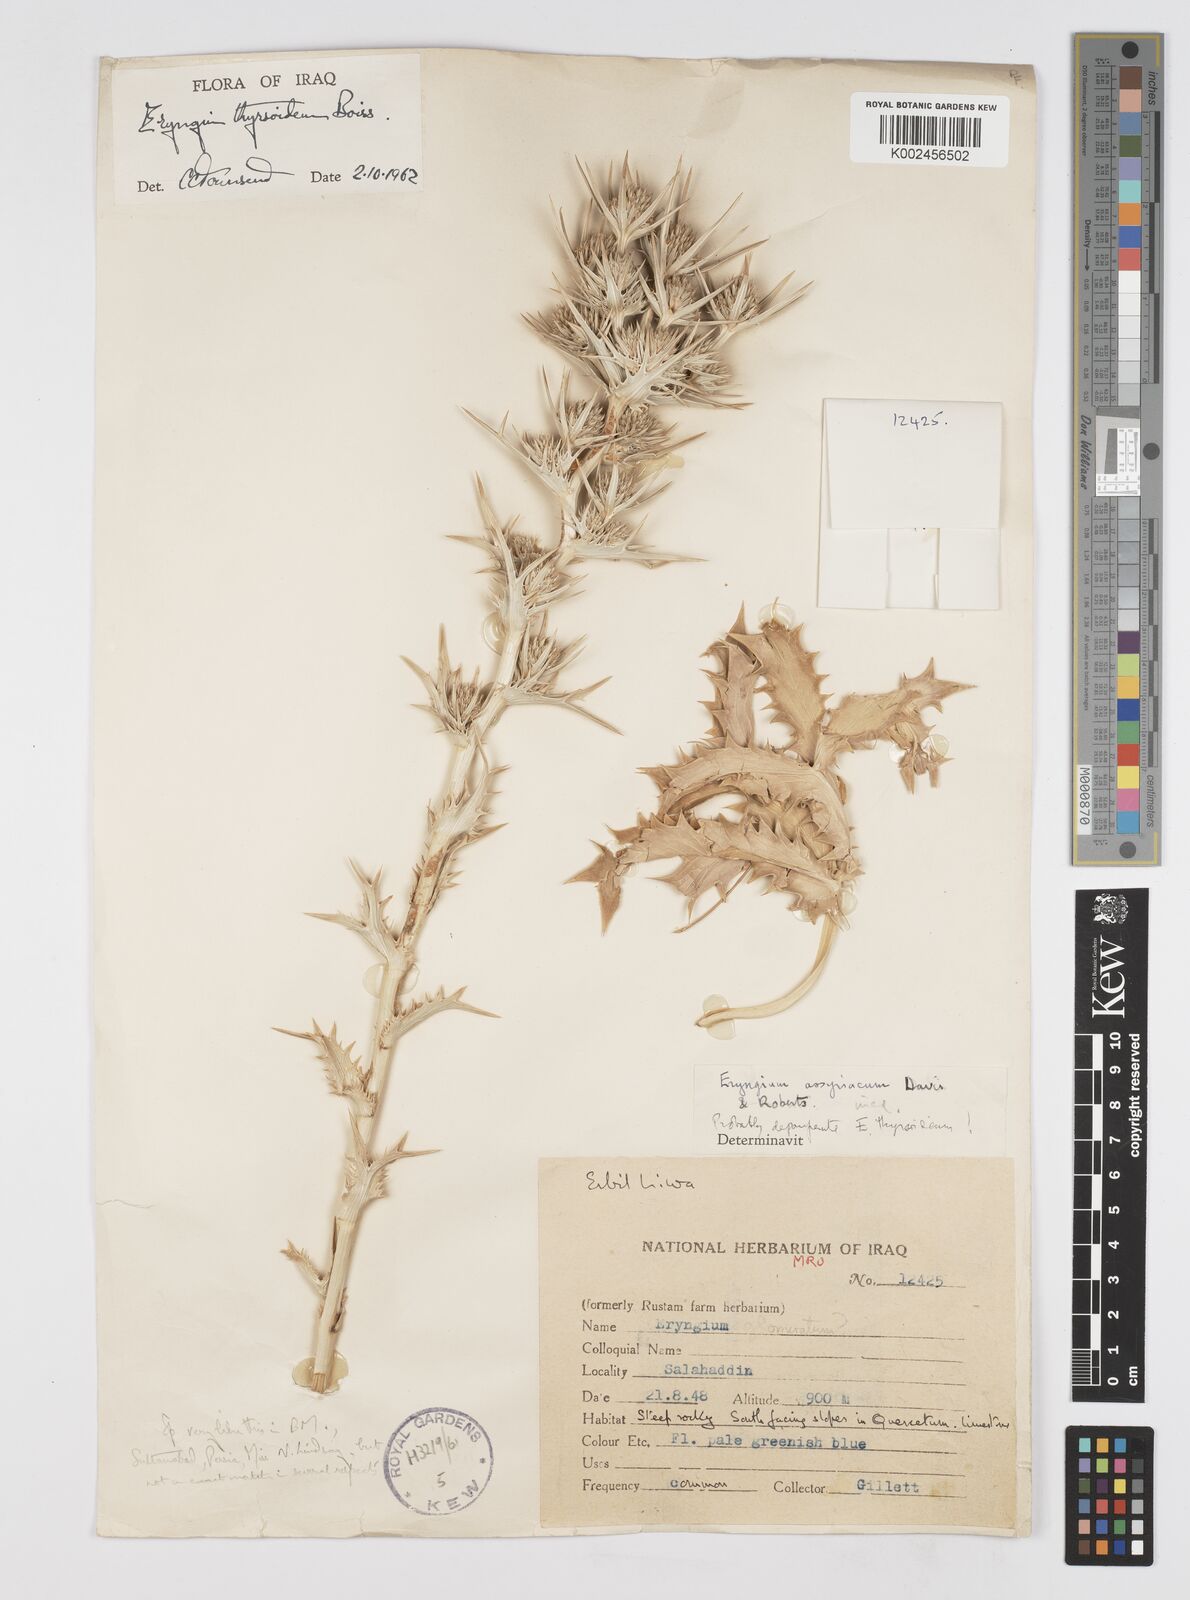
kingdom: Plantae
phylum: Tracheophyta
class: Magnoliopsida
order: Apiales
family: Apiaceae
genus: Eryngium
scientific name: Eryngium thyrsoideum
